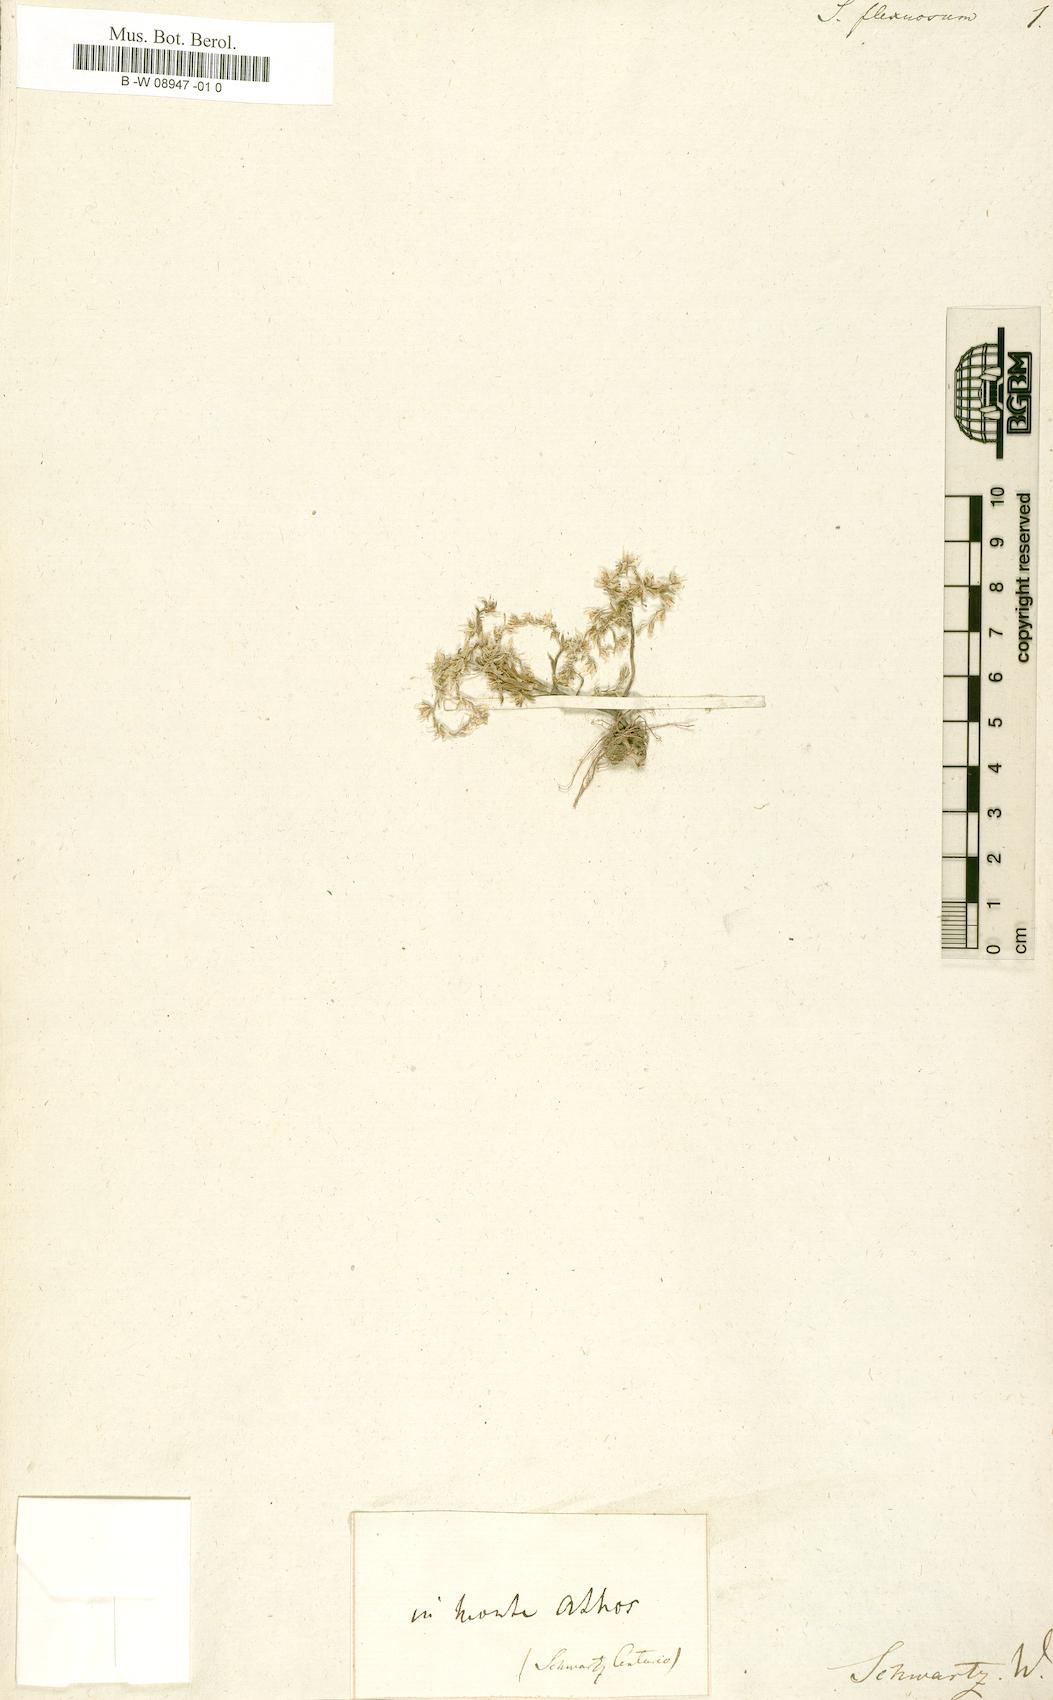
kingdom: Plantae
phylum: Tracheophyta
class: Magnoliopsida
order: Saxifragales
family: Crassulaceae
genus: Sedum
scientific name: Sedum grisebachii
